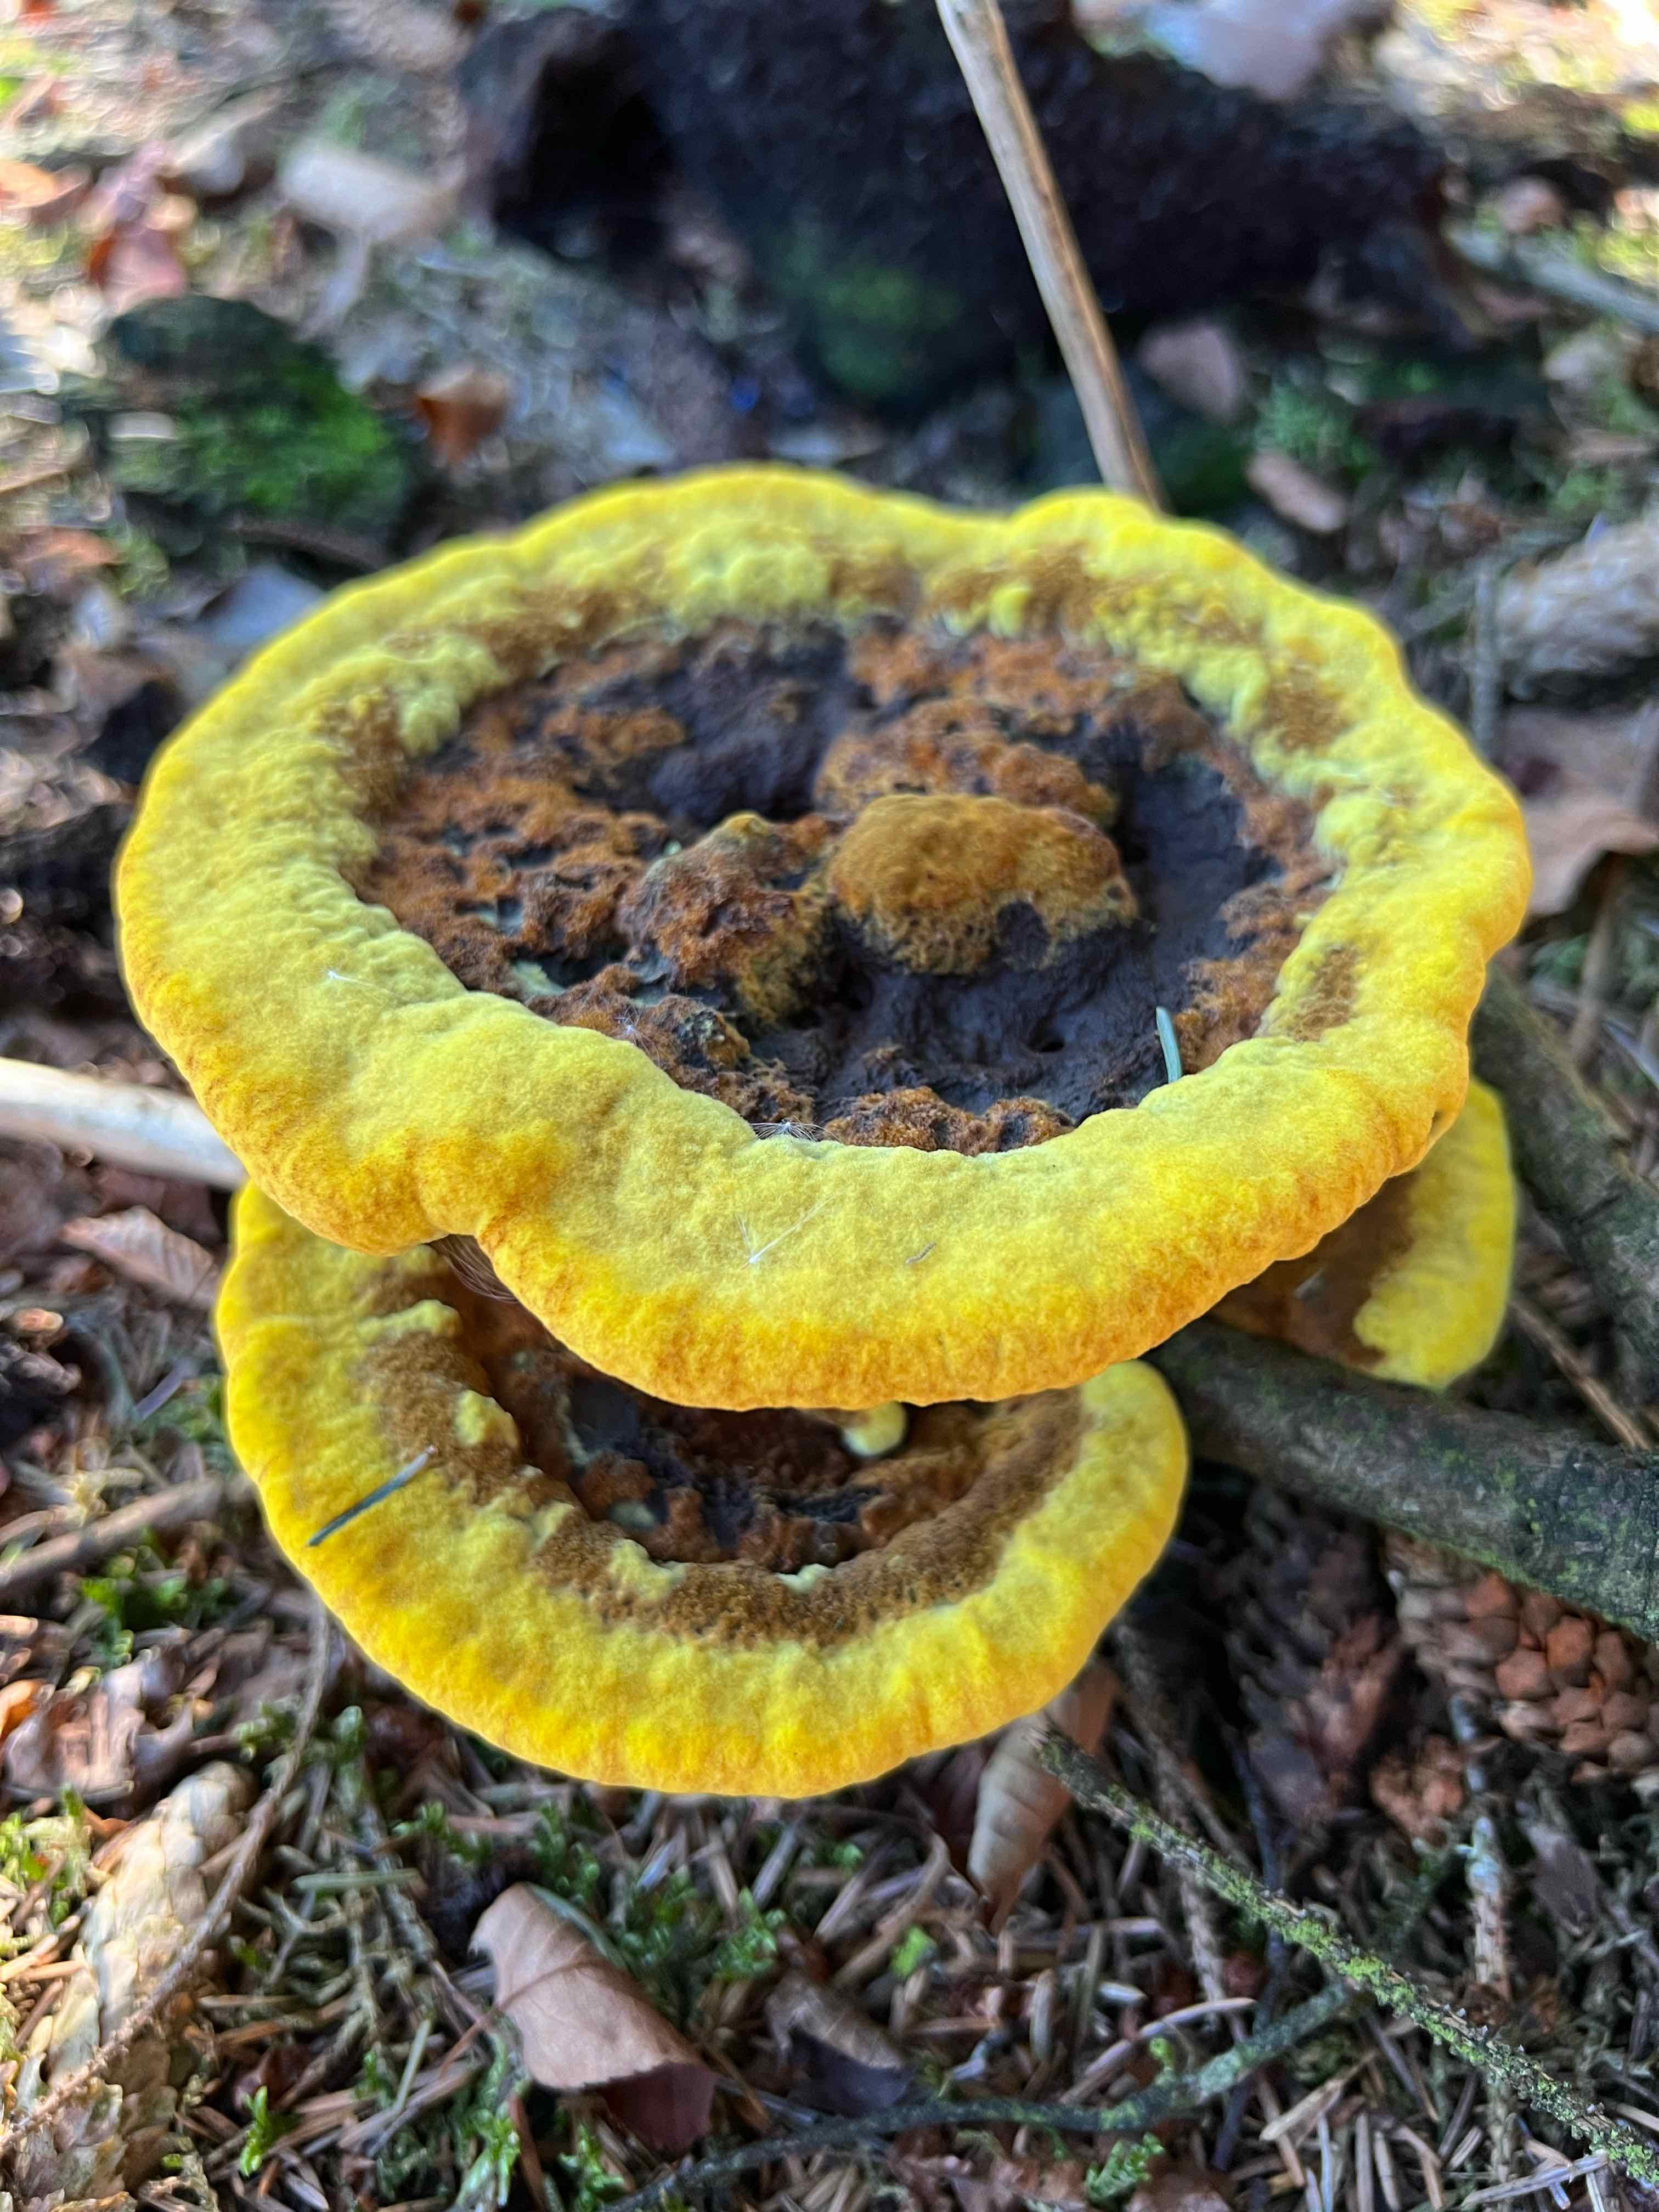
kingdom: Fungi
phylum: Basidiomycota
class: Agaricomycetes
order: Polyporales
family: Laetiporaceae
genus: Phaeolus
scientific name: Phaeolus schweinitzii
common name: brunporesvamp
